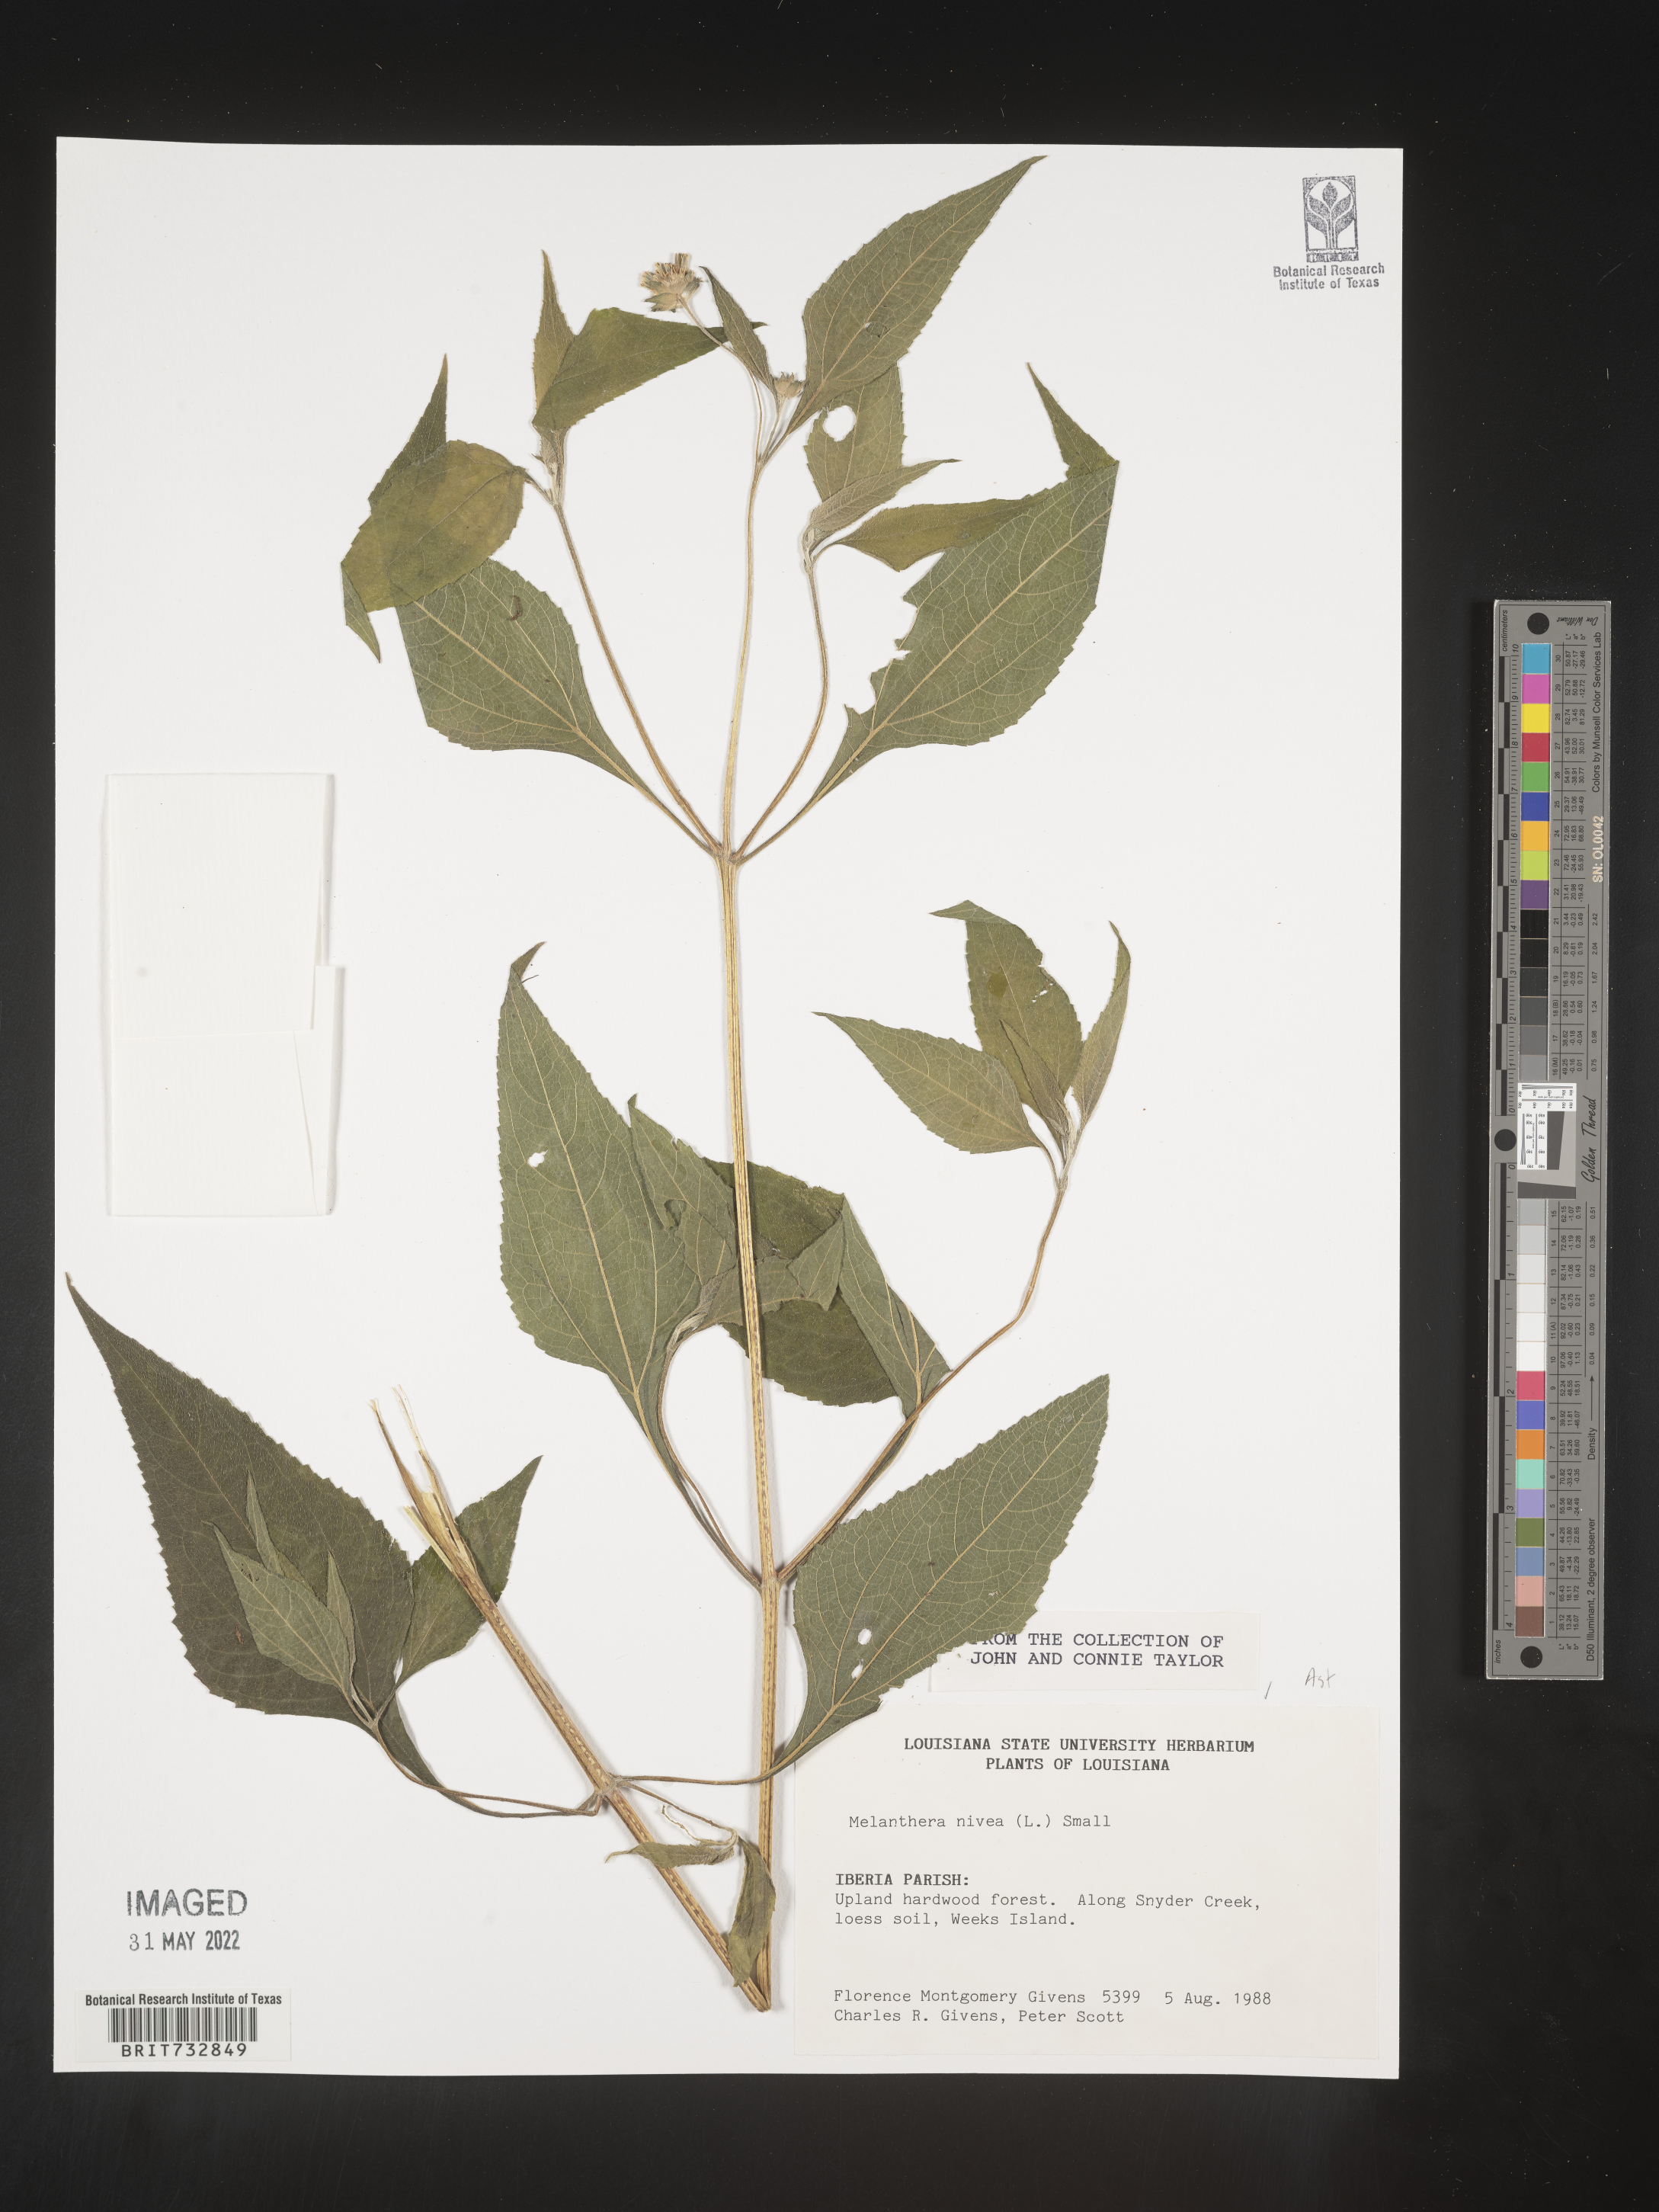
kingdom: Plantae
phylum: Tracheophyta
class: Magnoliopsida
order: Asterales
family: Asteraceae
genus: Melanthera
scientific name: Melanthera nivea
